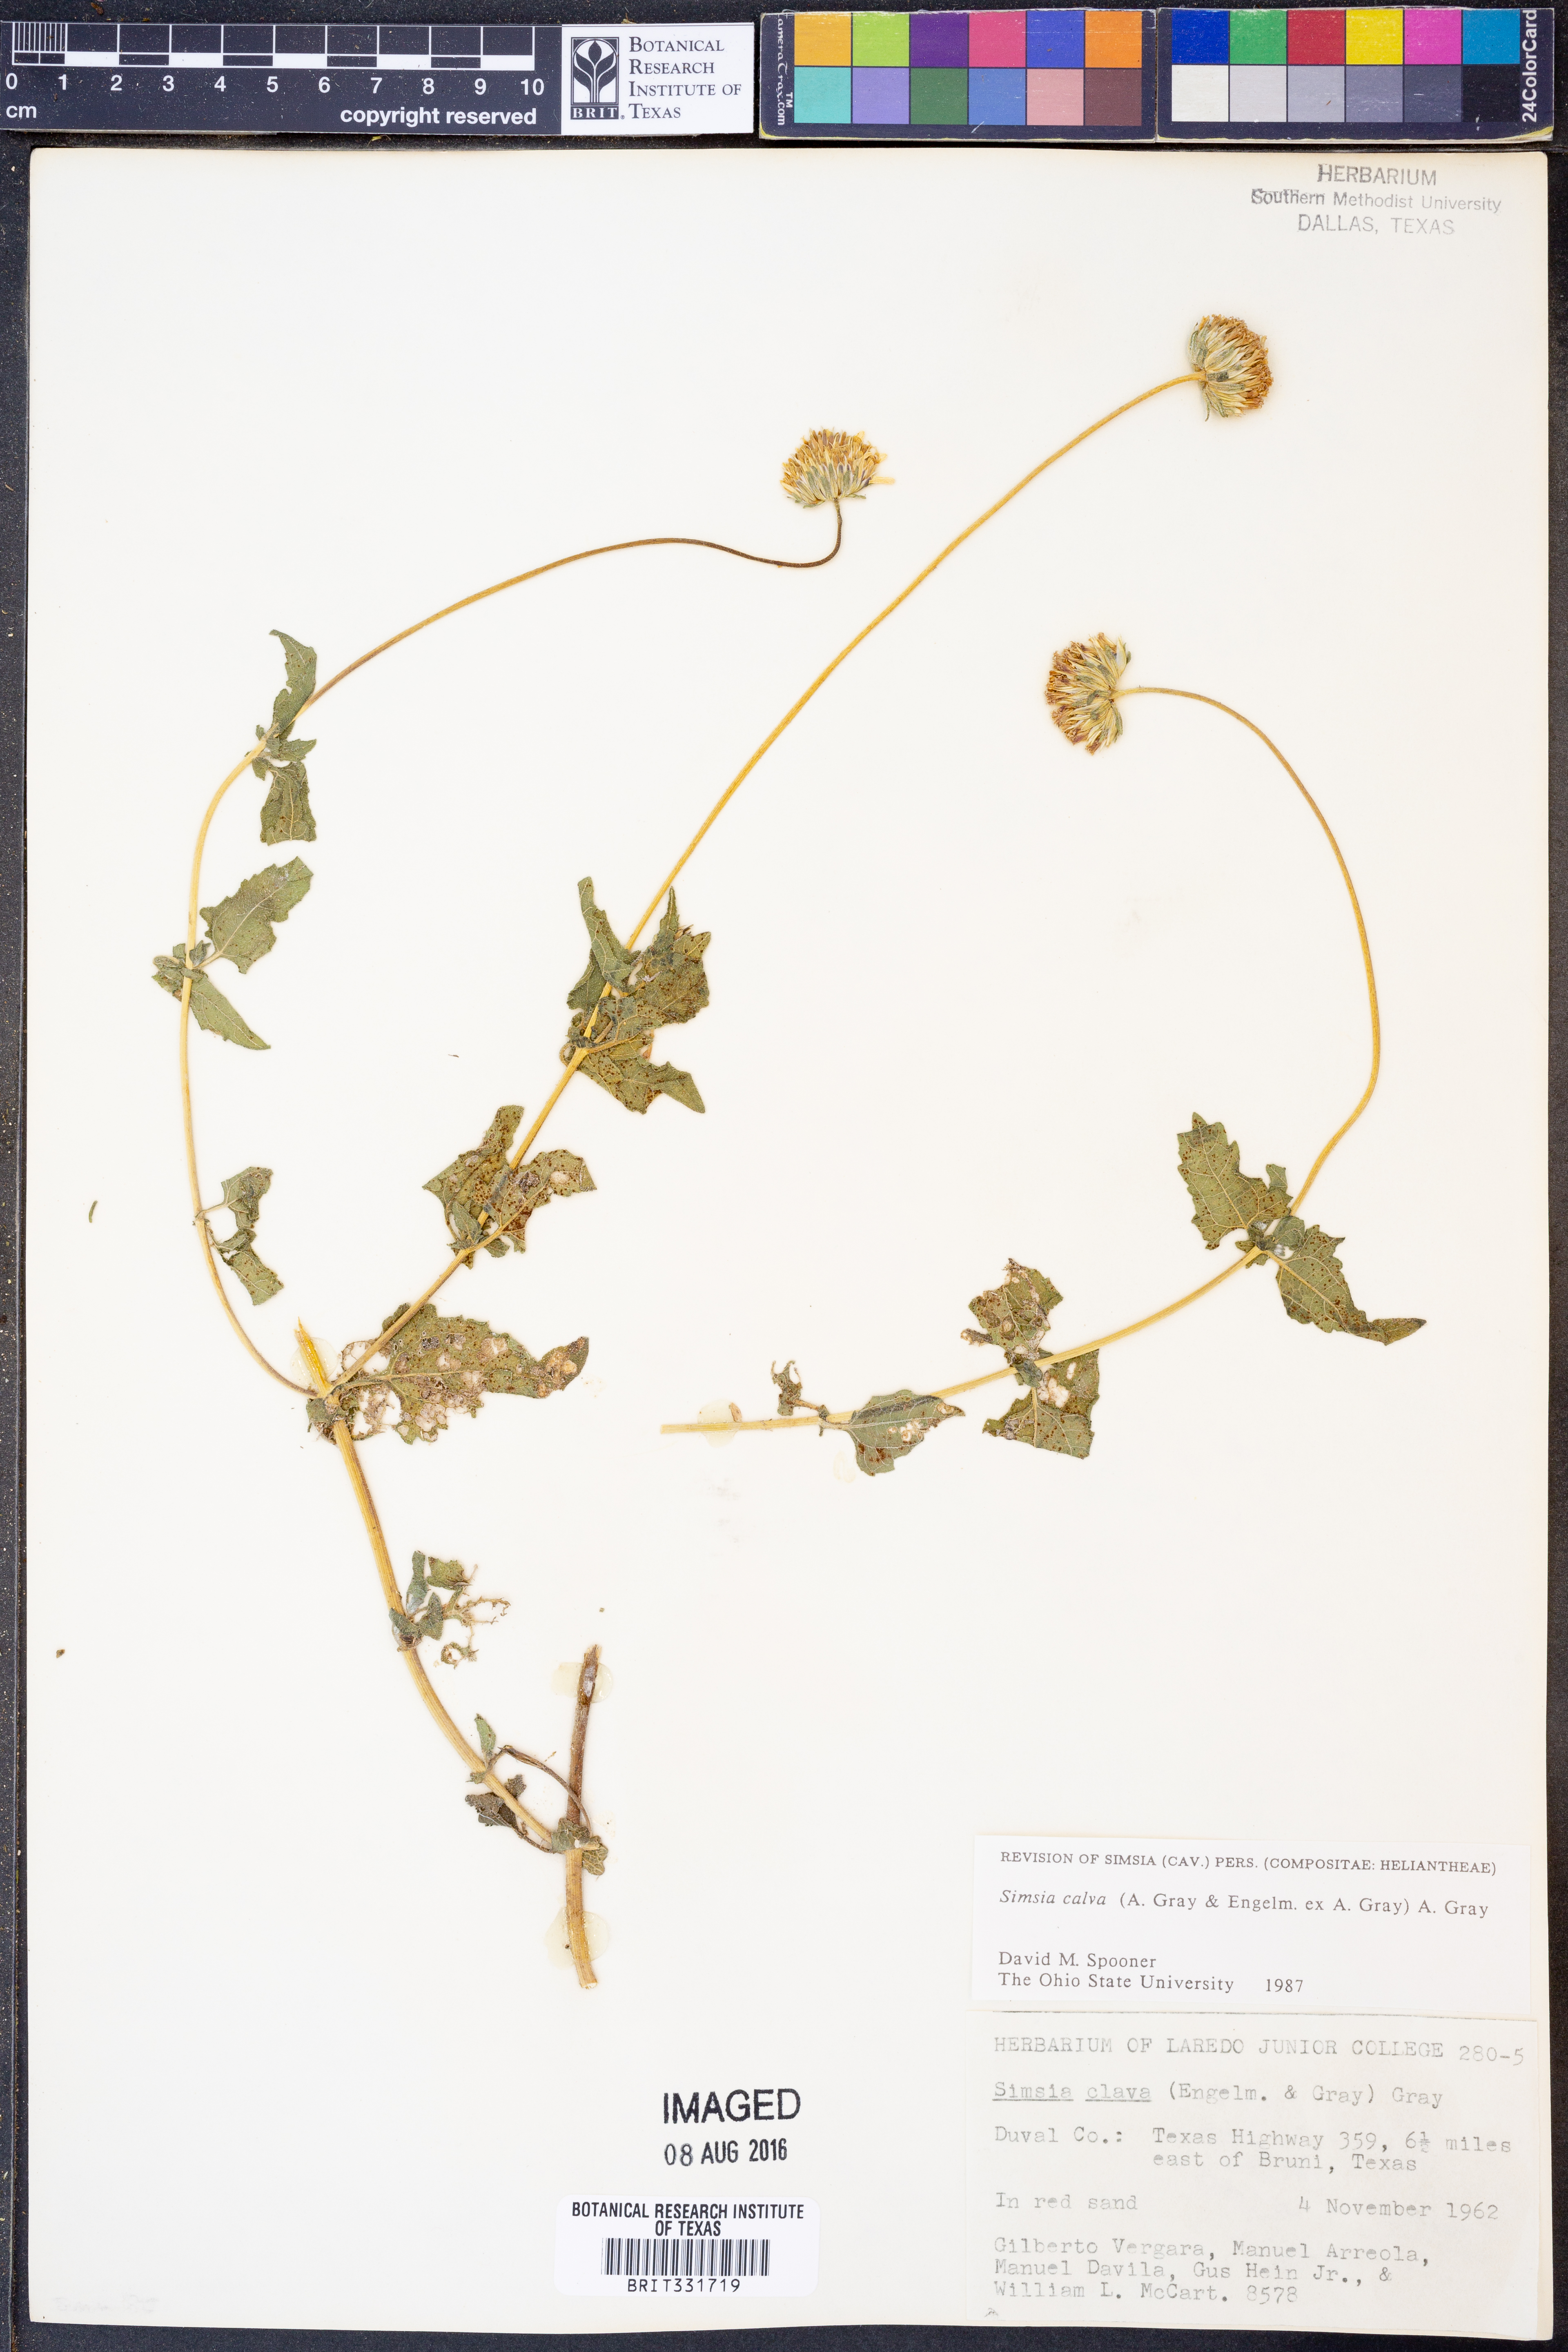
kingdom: Plantae
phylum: Tracheophyta
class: Magnoliopsida
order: Asterales
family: Asteraceae
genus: Simsia
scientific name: Simsia calva
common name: Awnless bush-sunflower
